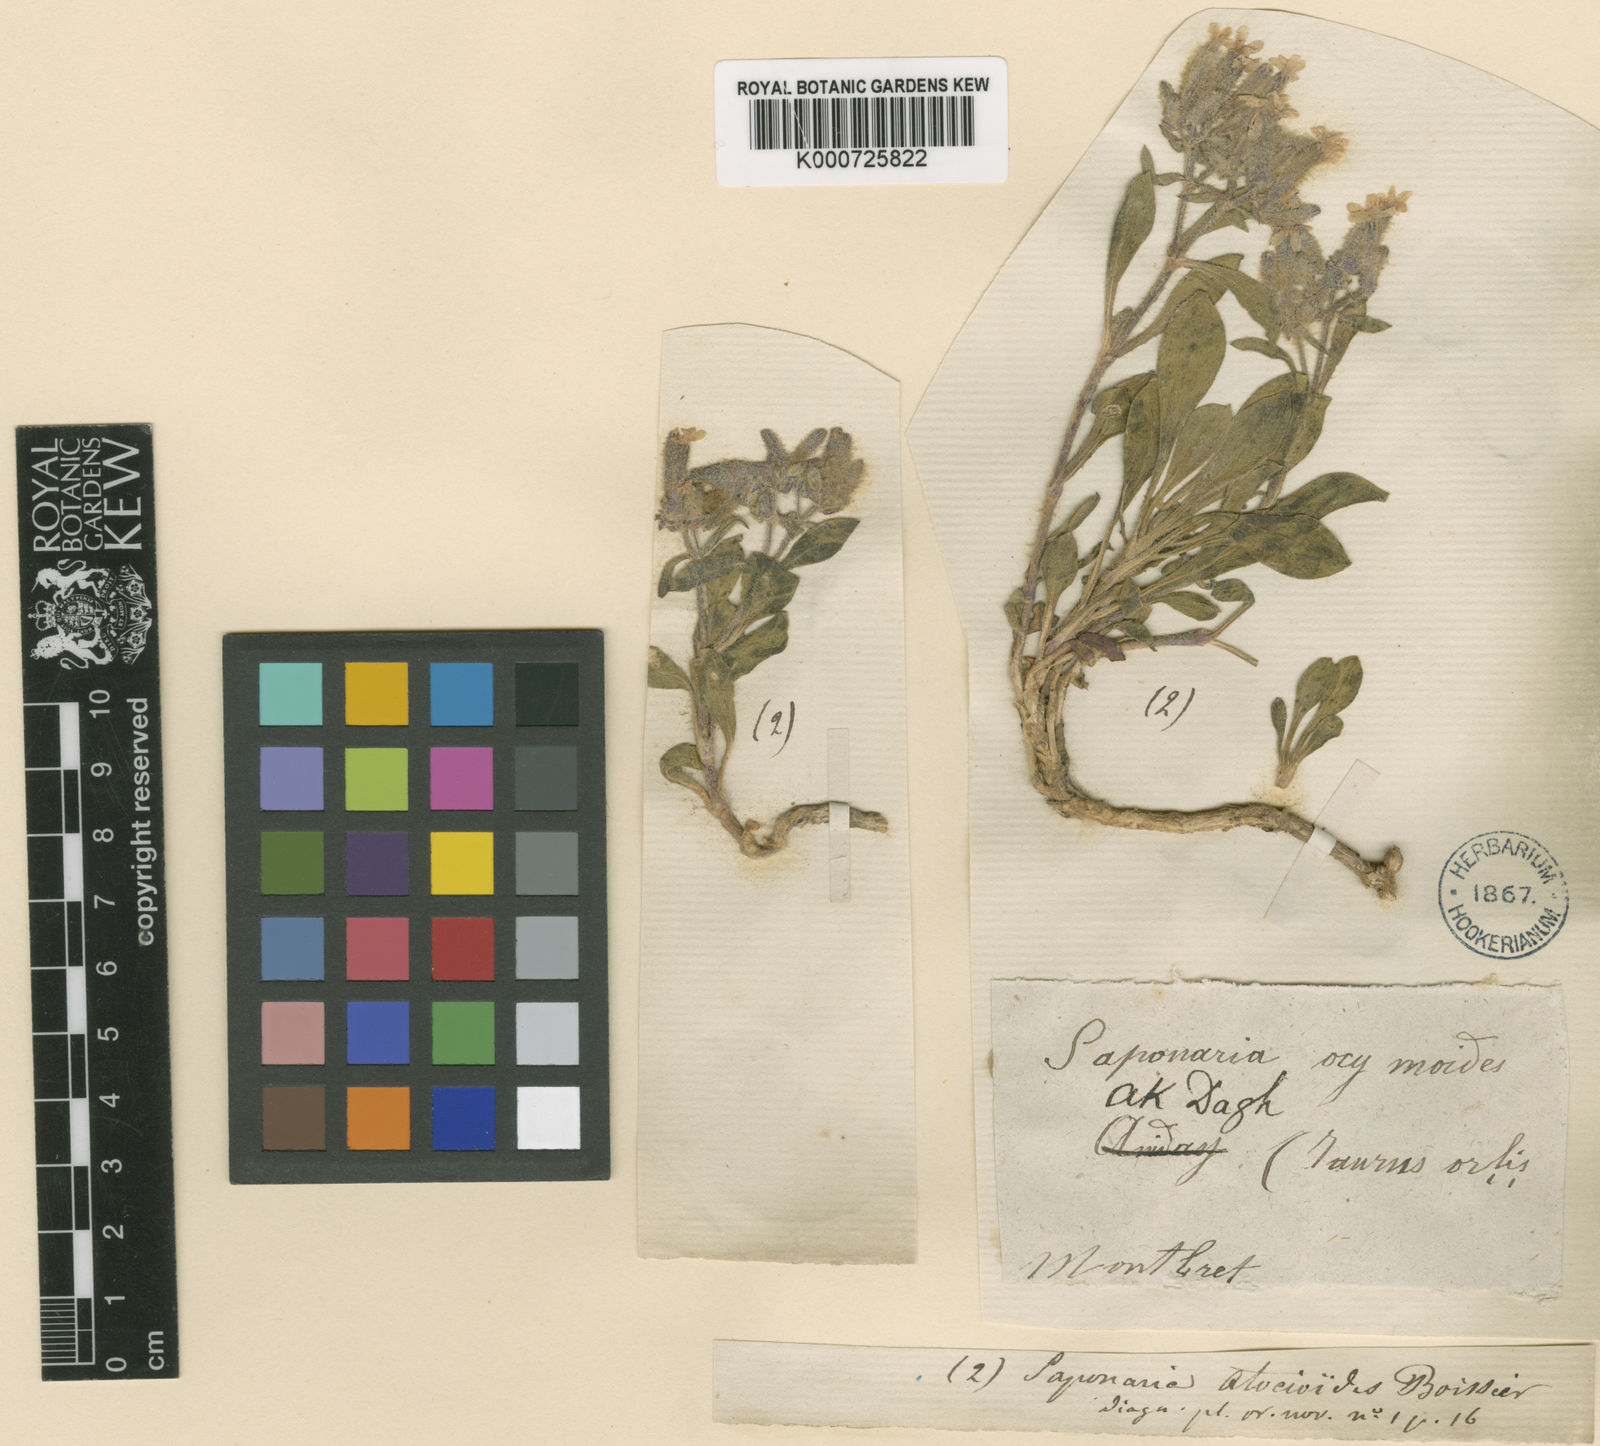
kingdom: Plantae
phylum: Tracheophyta
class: Magnoliopsida
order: Caryophyllales
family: Caryophyllaceae
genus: Saponaria
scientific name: Saponaria prostrata
